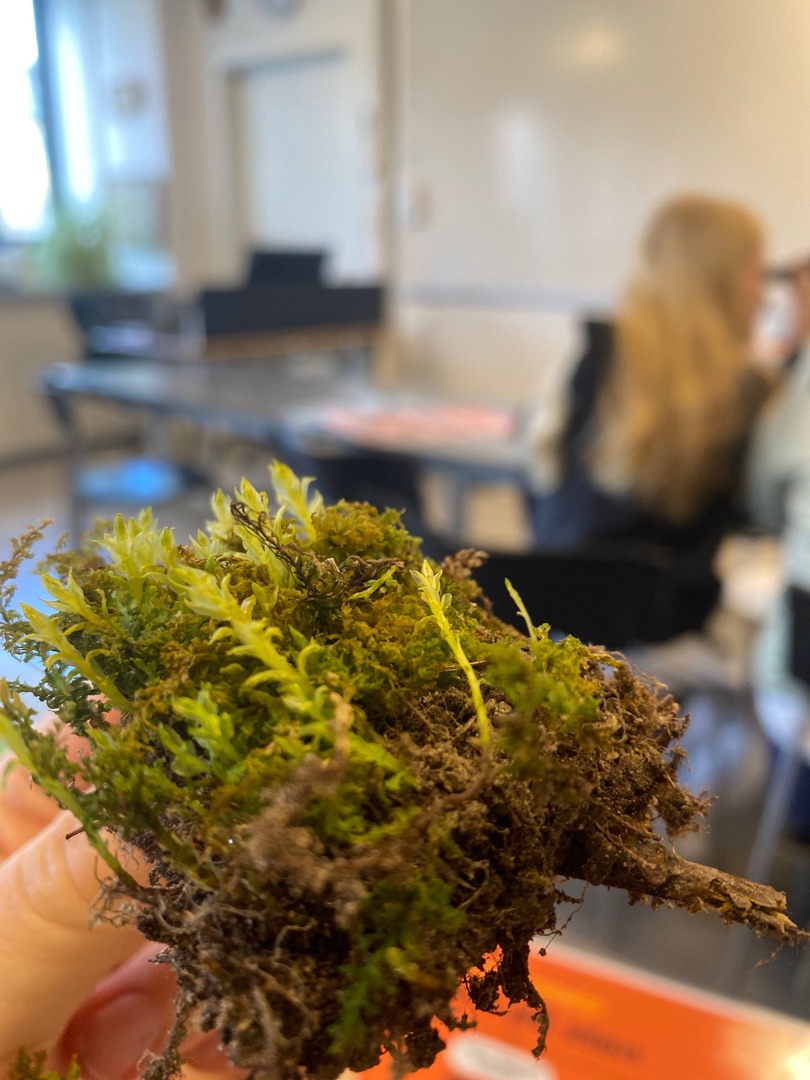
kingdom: Plantae
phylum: Bryophyta
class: Bryopsida
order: Bryales
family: Mniaceae
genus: Plagiomnium
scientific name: Plagiomnium undulatum
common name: Bølget krybstjerne
